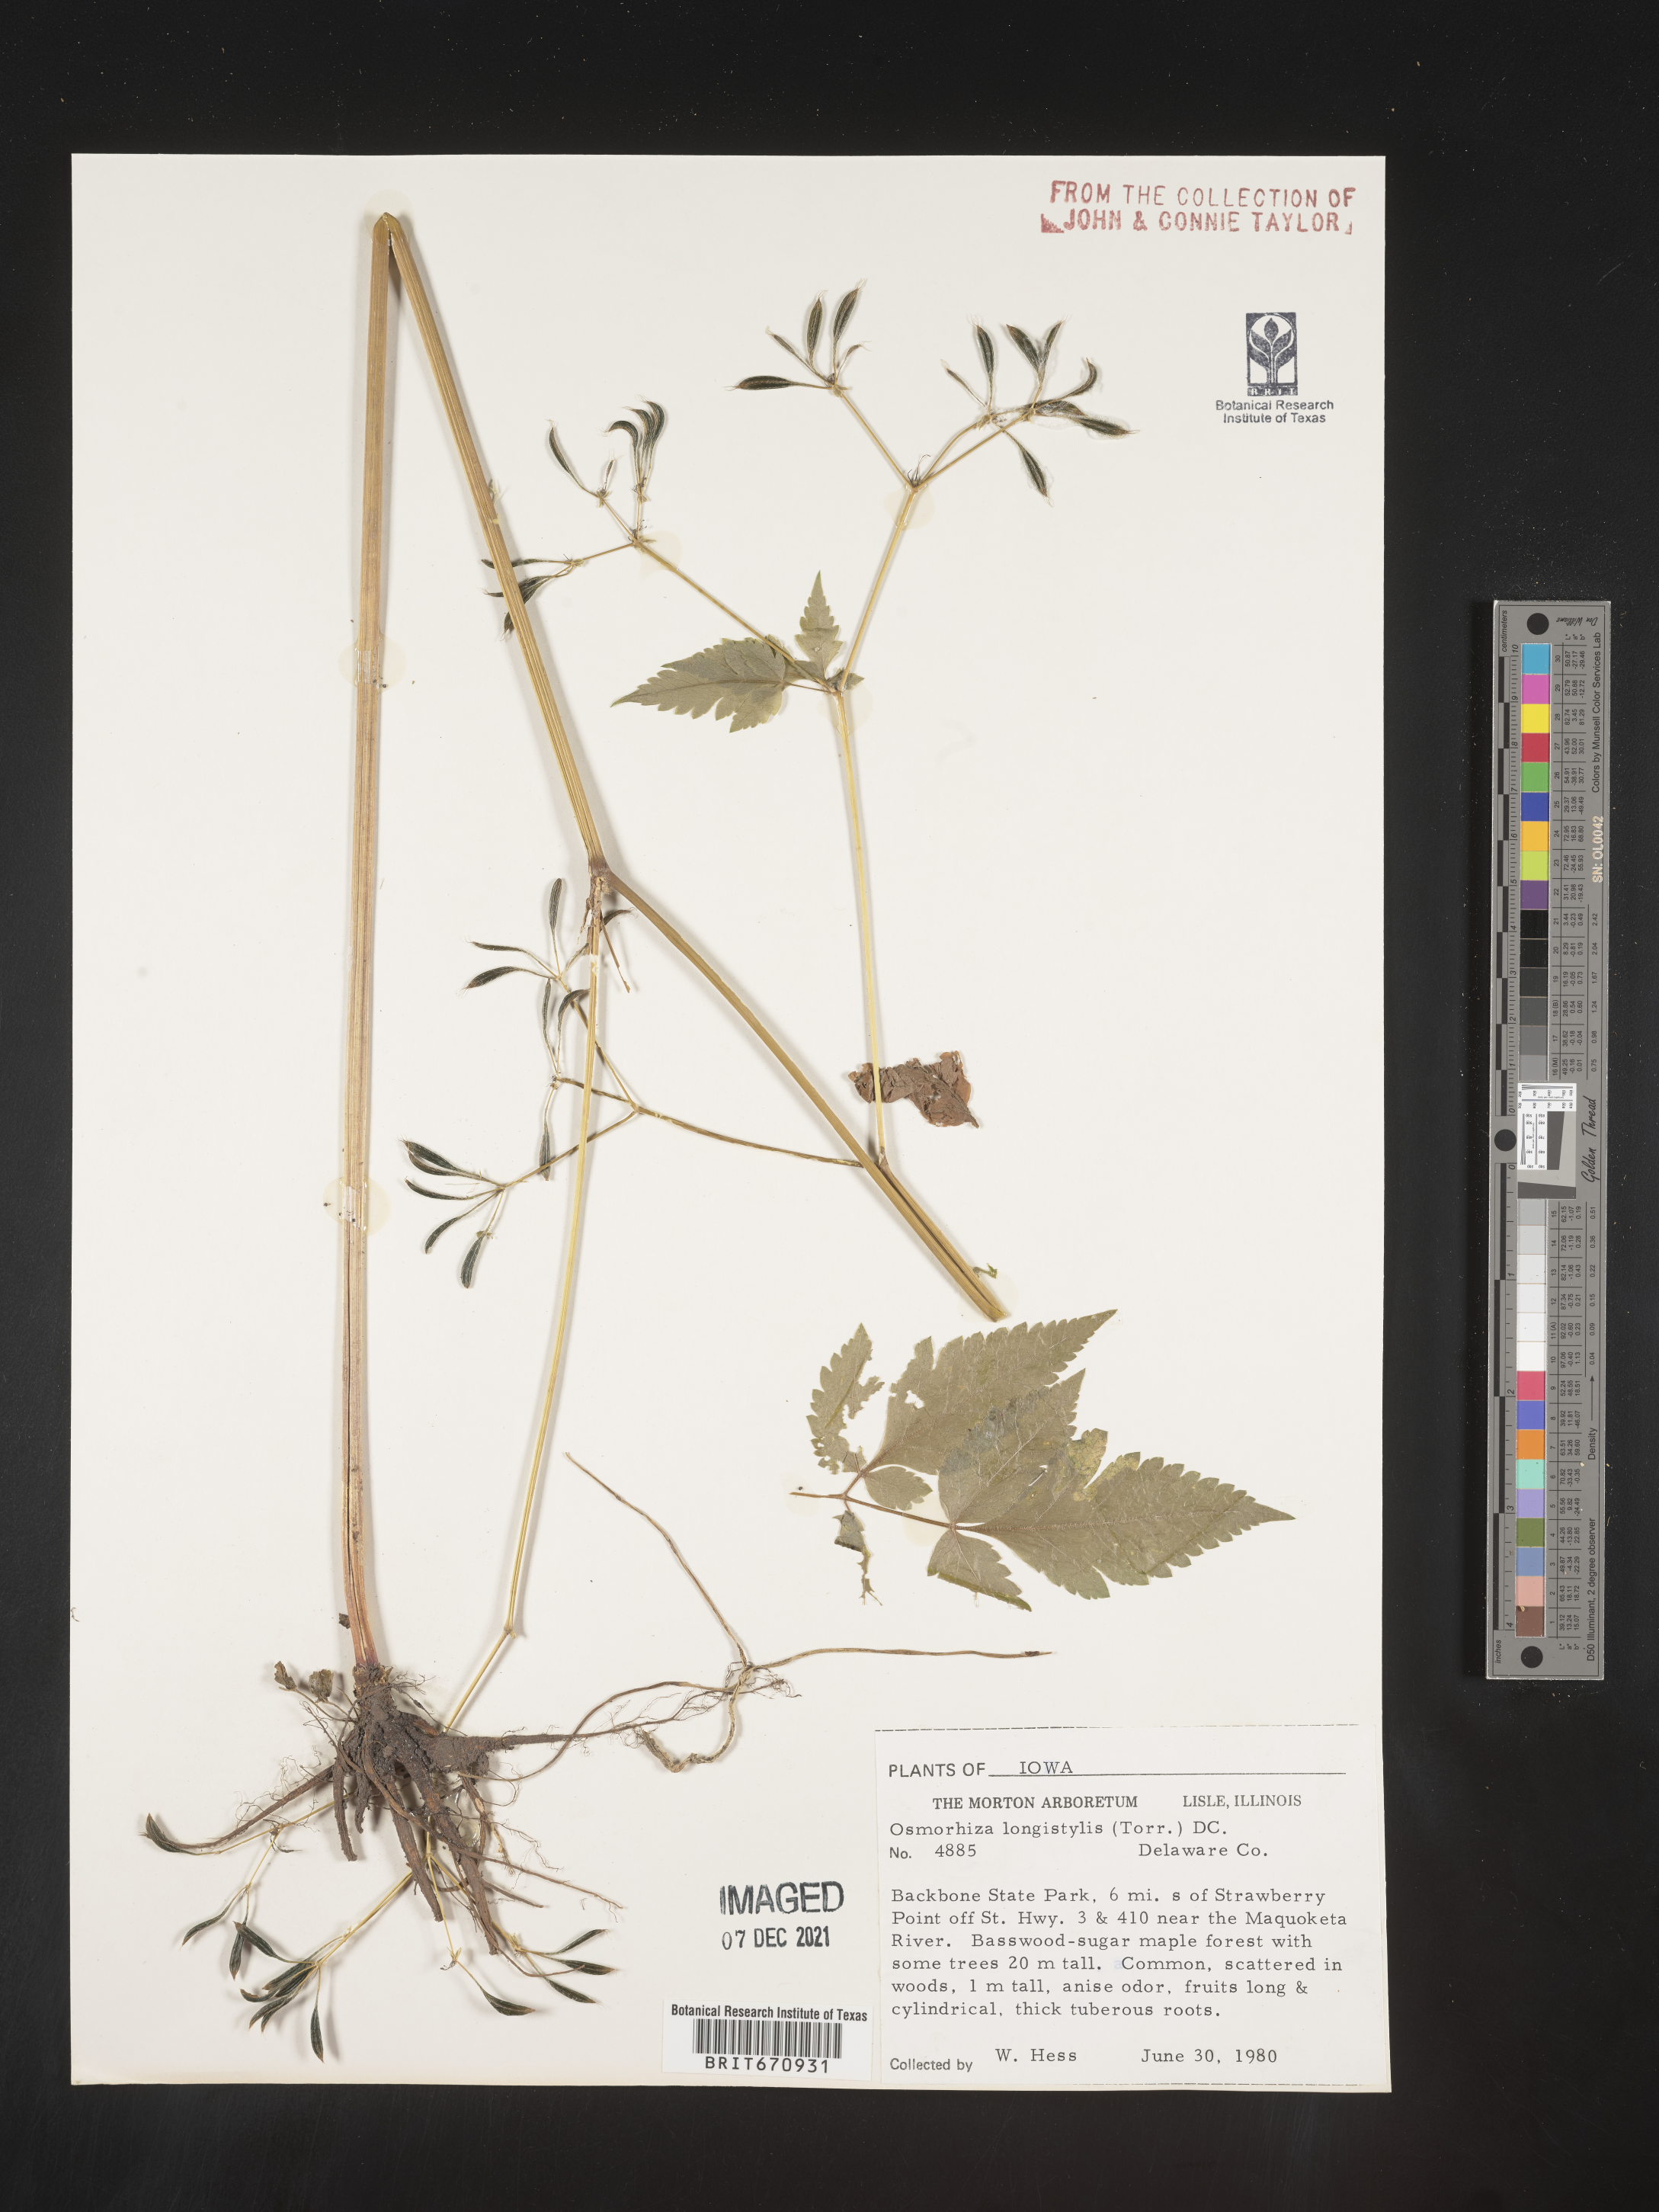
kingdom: Plantae
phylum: Tracheophyta
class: Magnoliopsida
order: Apiales
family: Apiaceae
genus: Osmorhiza
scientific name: Osmorhiza longistylis
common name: Smooth sweet cicely
